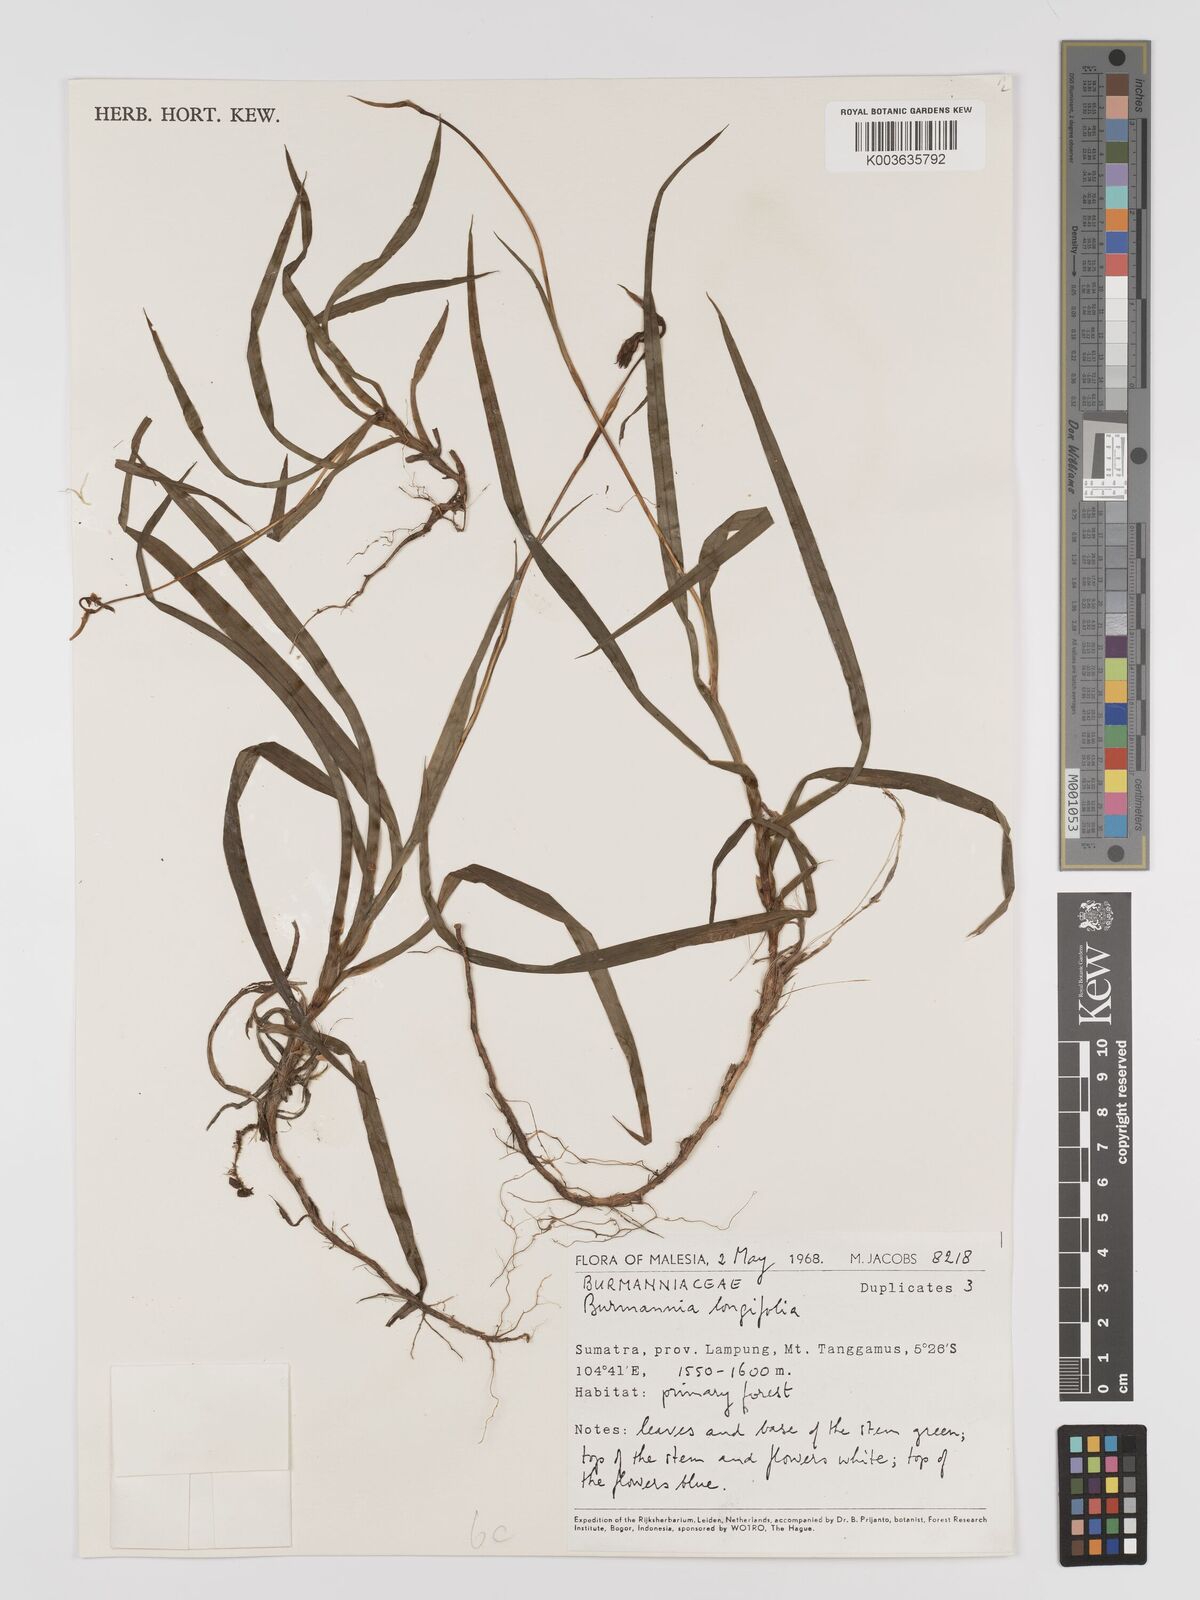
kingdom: Plantae
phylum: Tracheophyta
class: Liliopsida
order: Dioscoreales
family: Burmanniaceae
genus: Burmannia
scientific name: Burmannia longifolia
